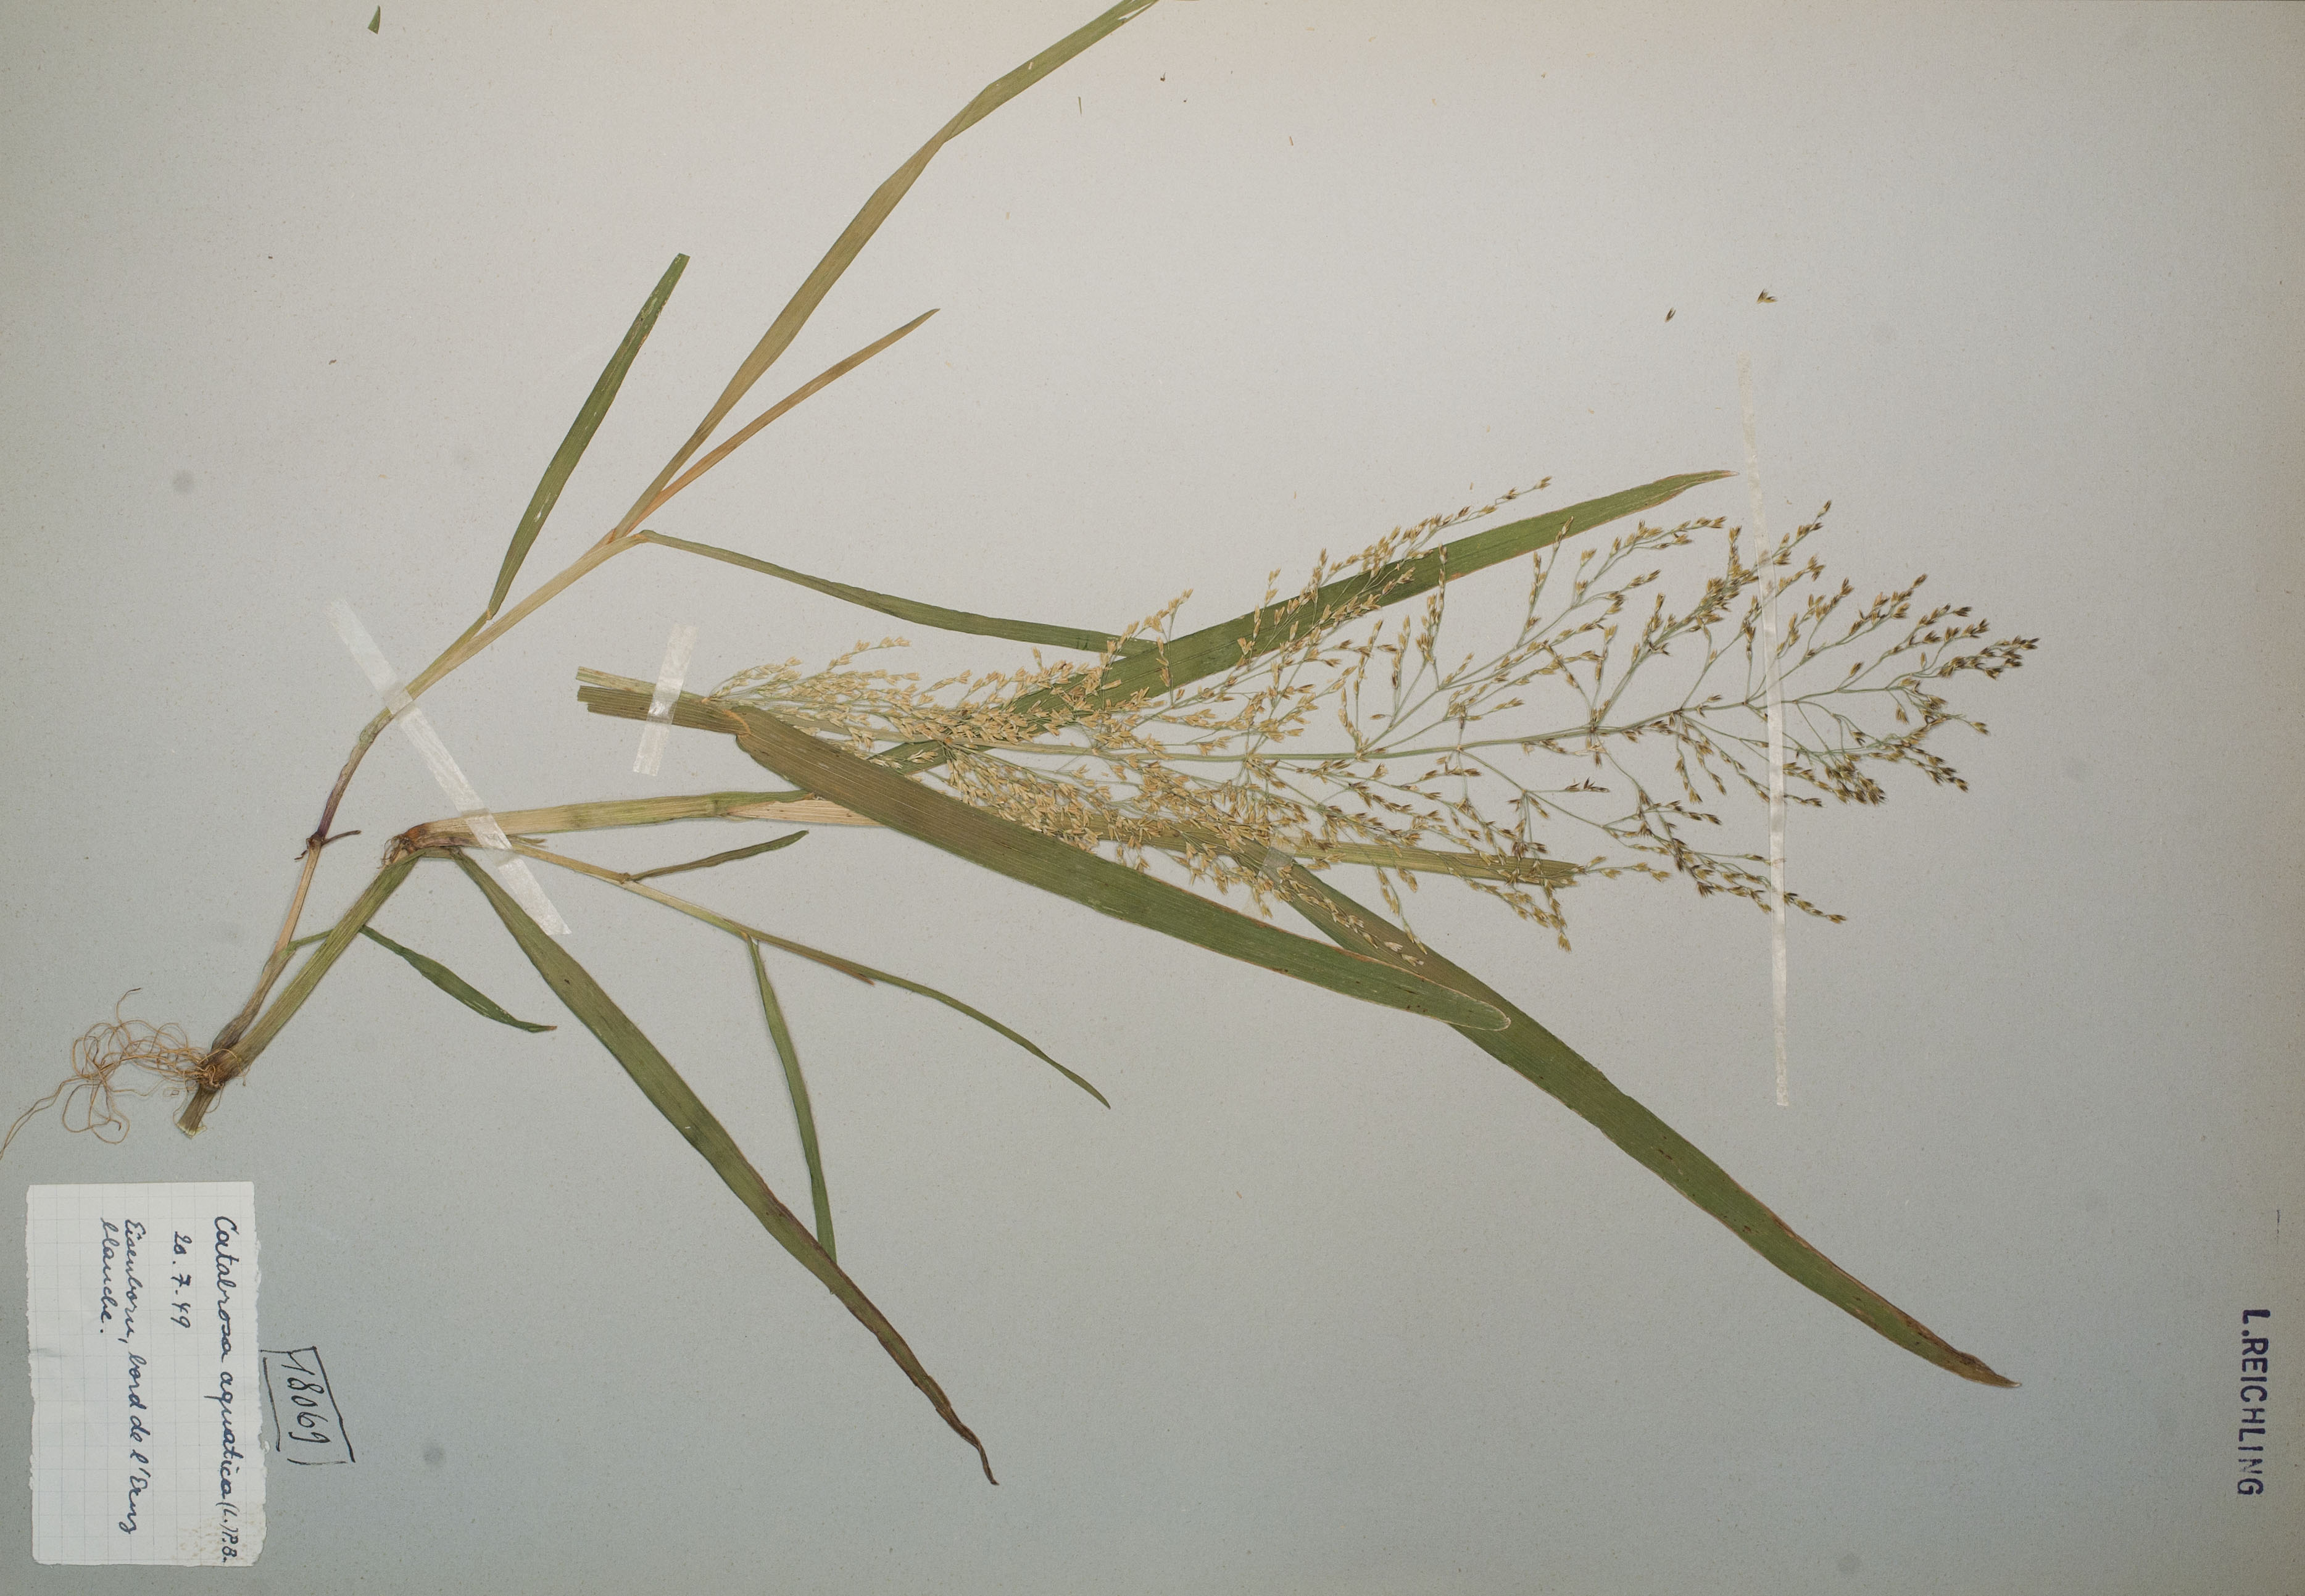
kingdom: Plantae
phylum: Tracheophyta
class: Liliopsida
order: Poales
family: Poaceae
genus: Catabrosa
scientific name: Catabrosa aquatica
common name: Whorl-grass
